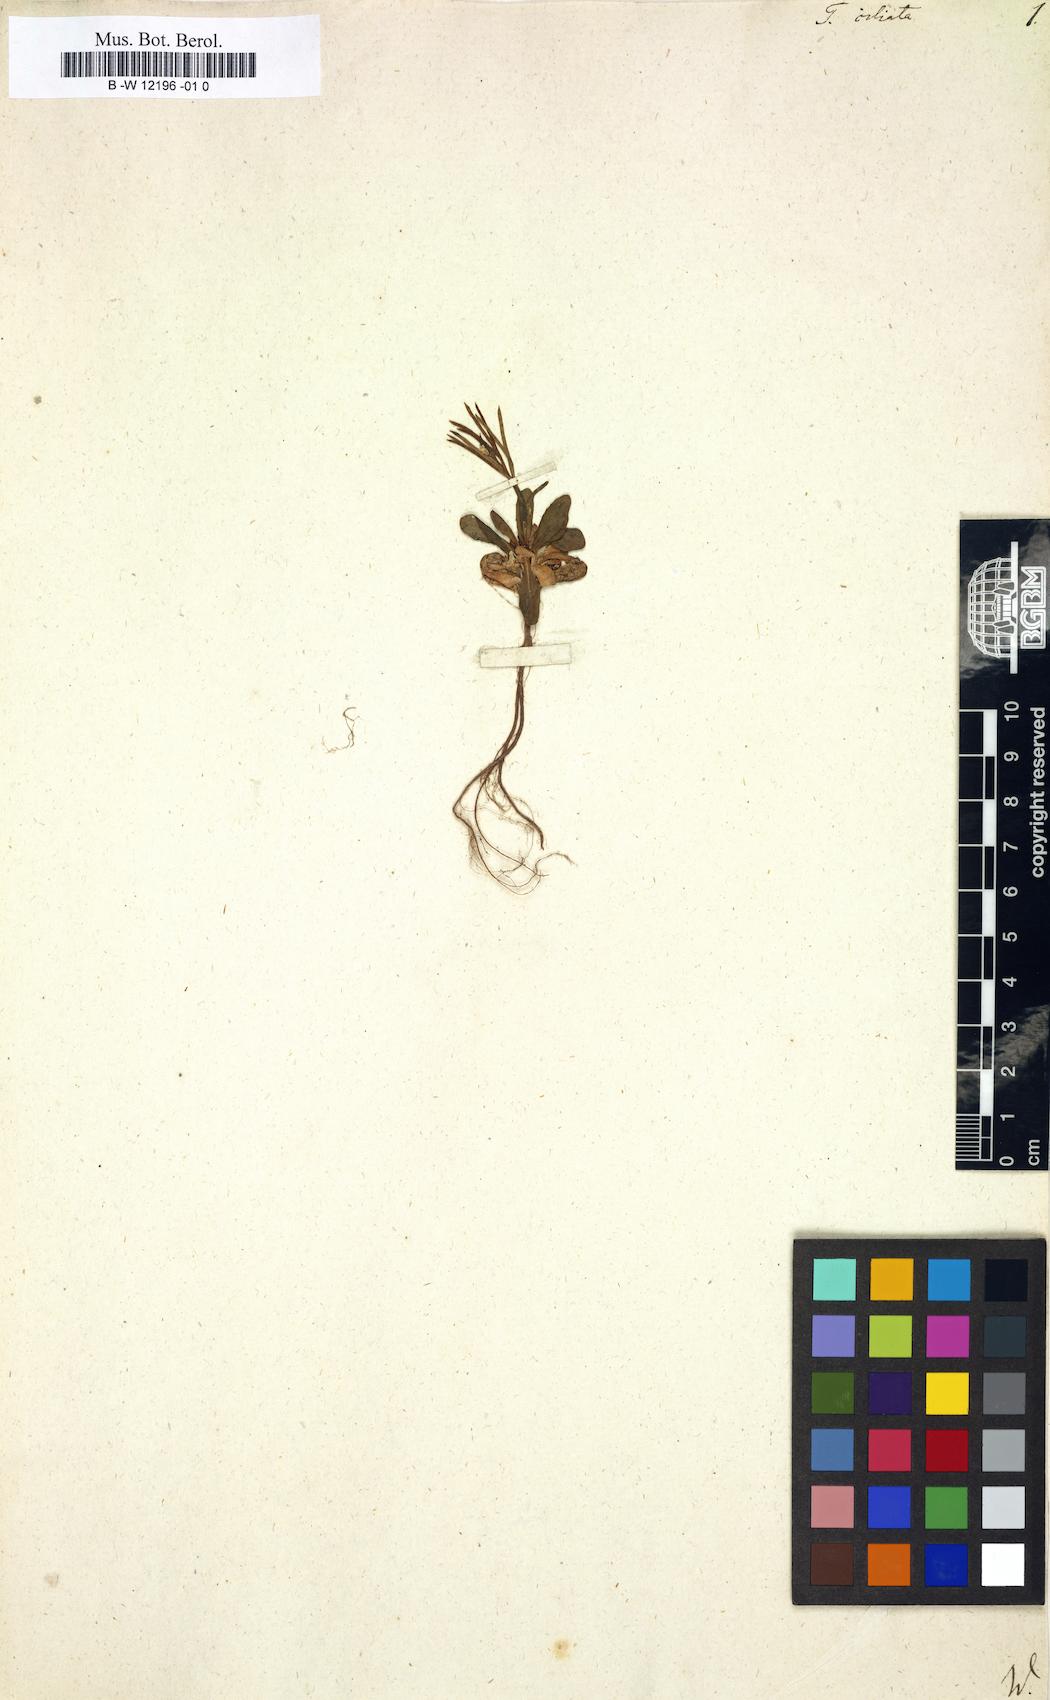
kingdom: Plantae
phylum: Tracheophyta
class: Magnoliopsida
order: Brassicales
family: Brassicaceae
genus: Arabis
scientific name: Arabis ciliata
